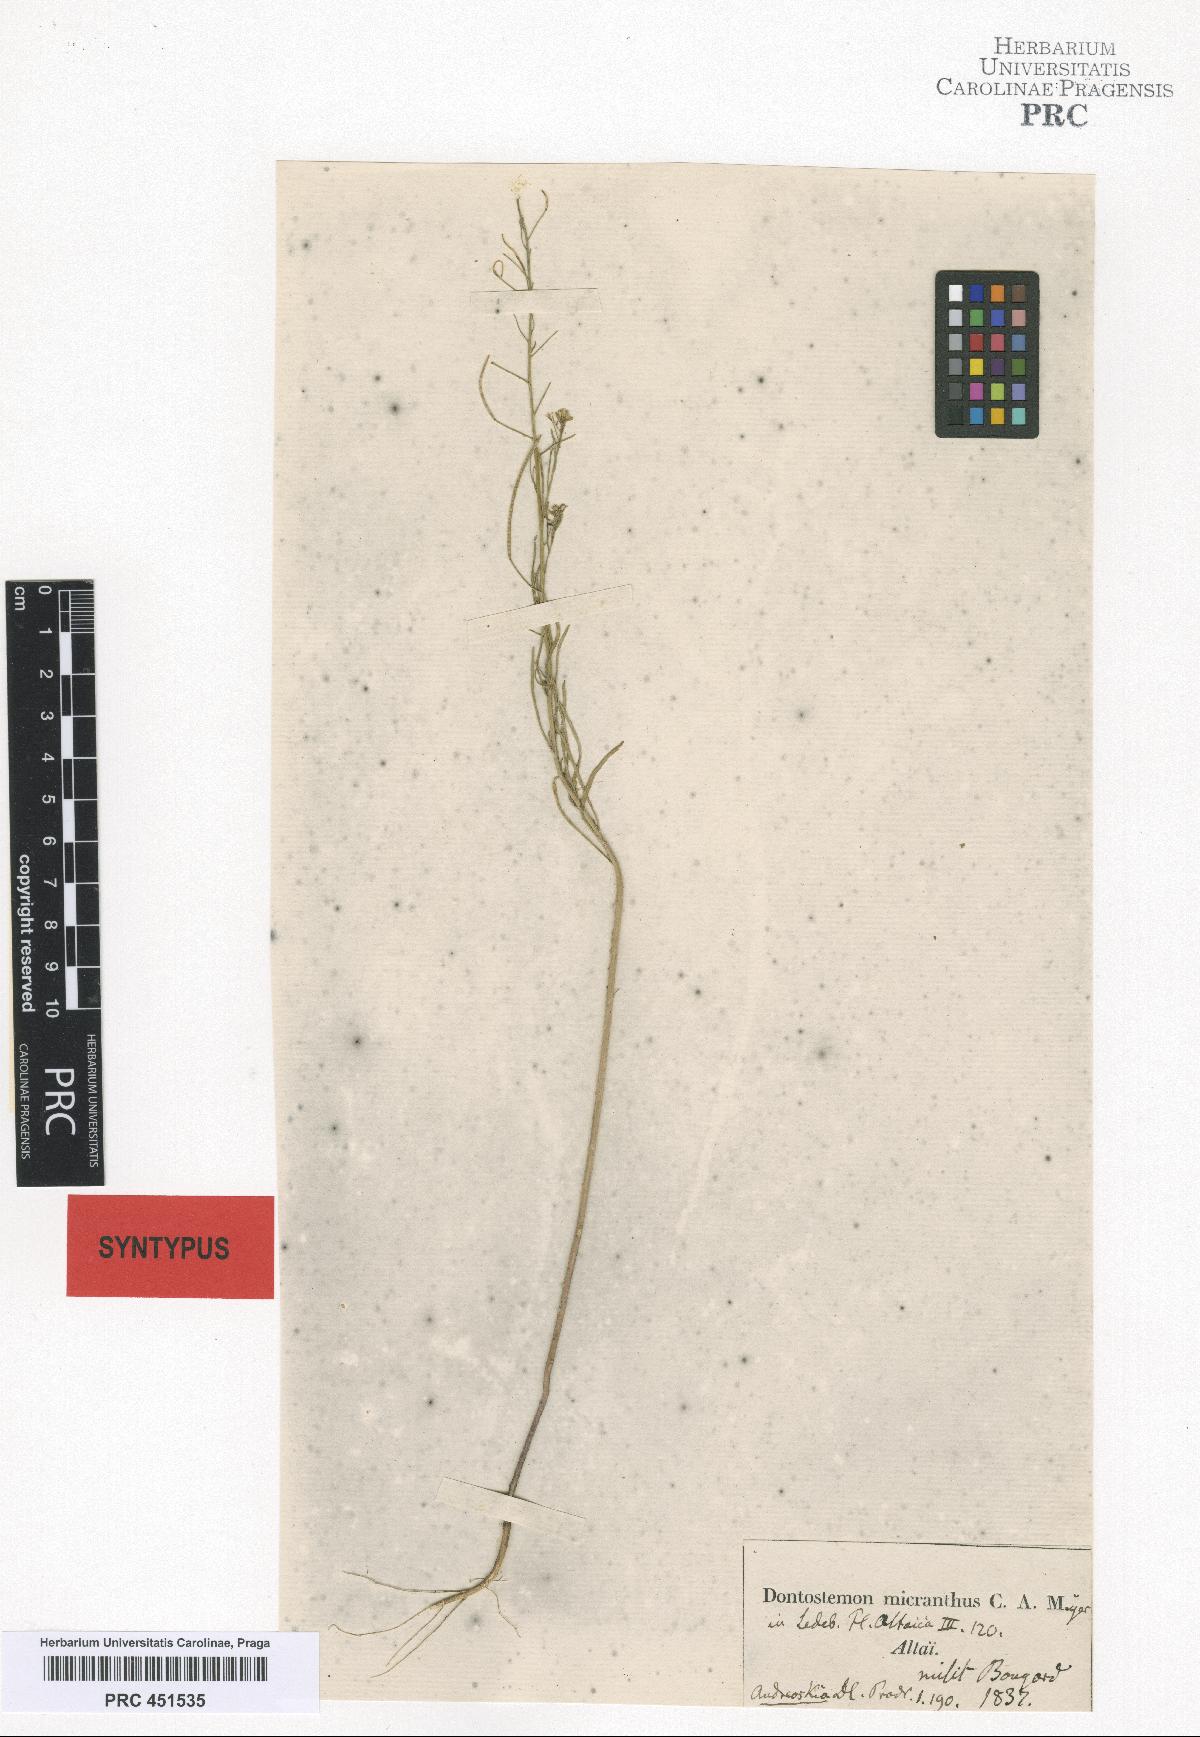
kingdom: Plantae
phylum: Tracheophyta
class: Magnoliopsida
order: Brassicales
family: Brassicaceae
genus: Dontostemon
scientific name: Dontostemon micranthus
